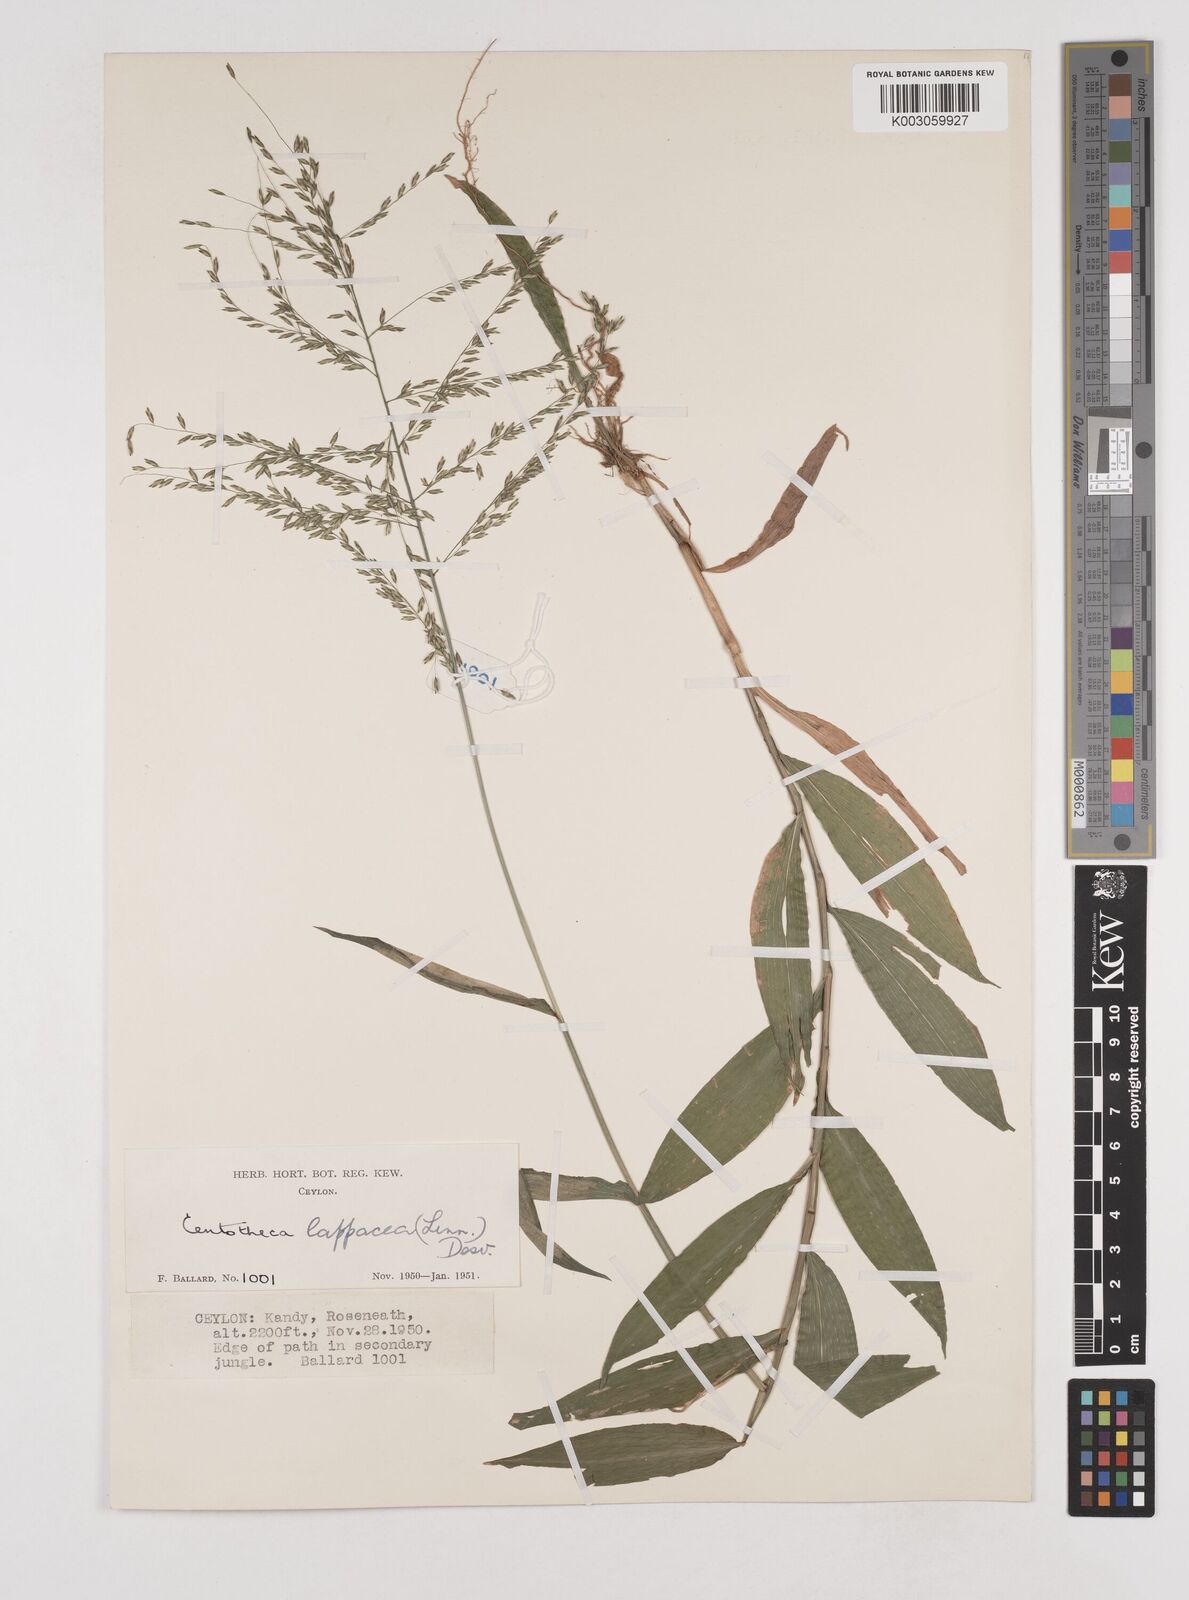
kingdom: Plantae
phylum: Tracheophyta
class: Liliopsida
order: Poales
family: Poaceae
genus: Centotheca
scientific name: Centotheca lappacea
